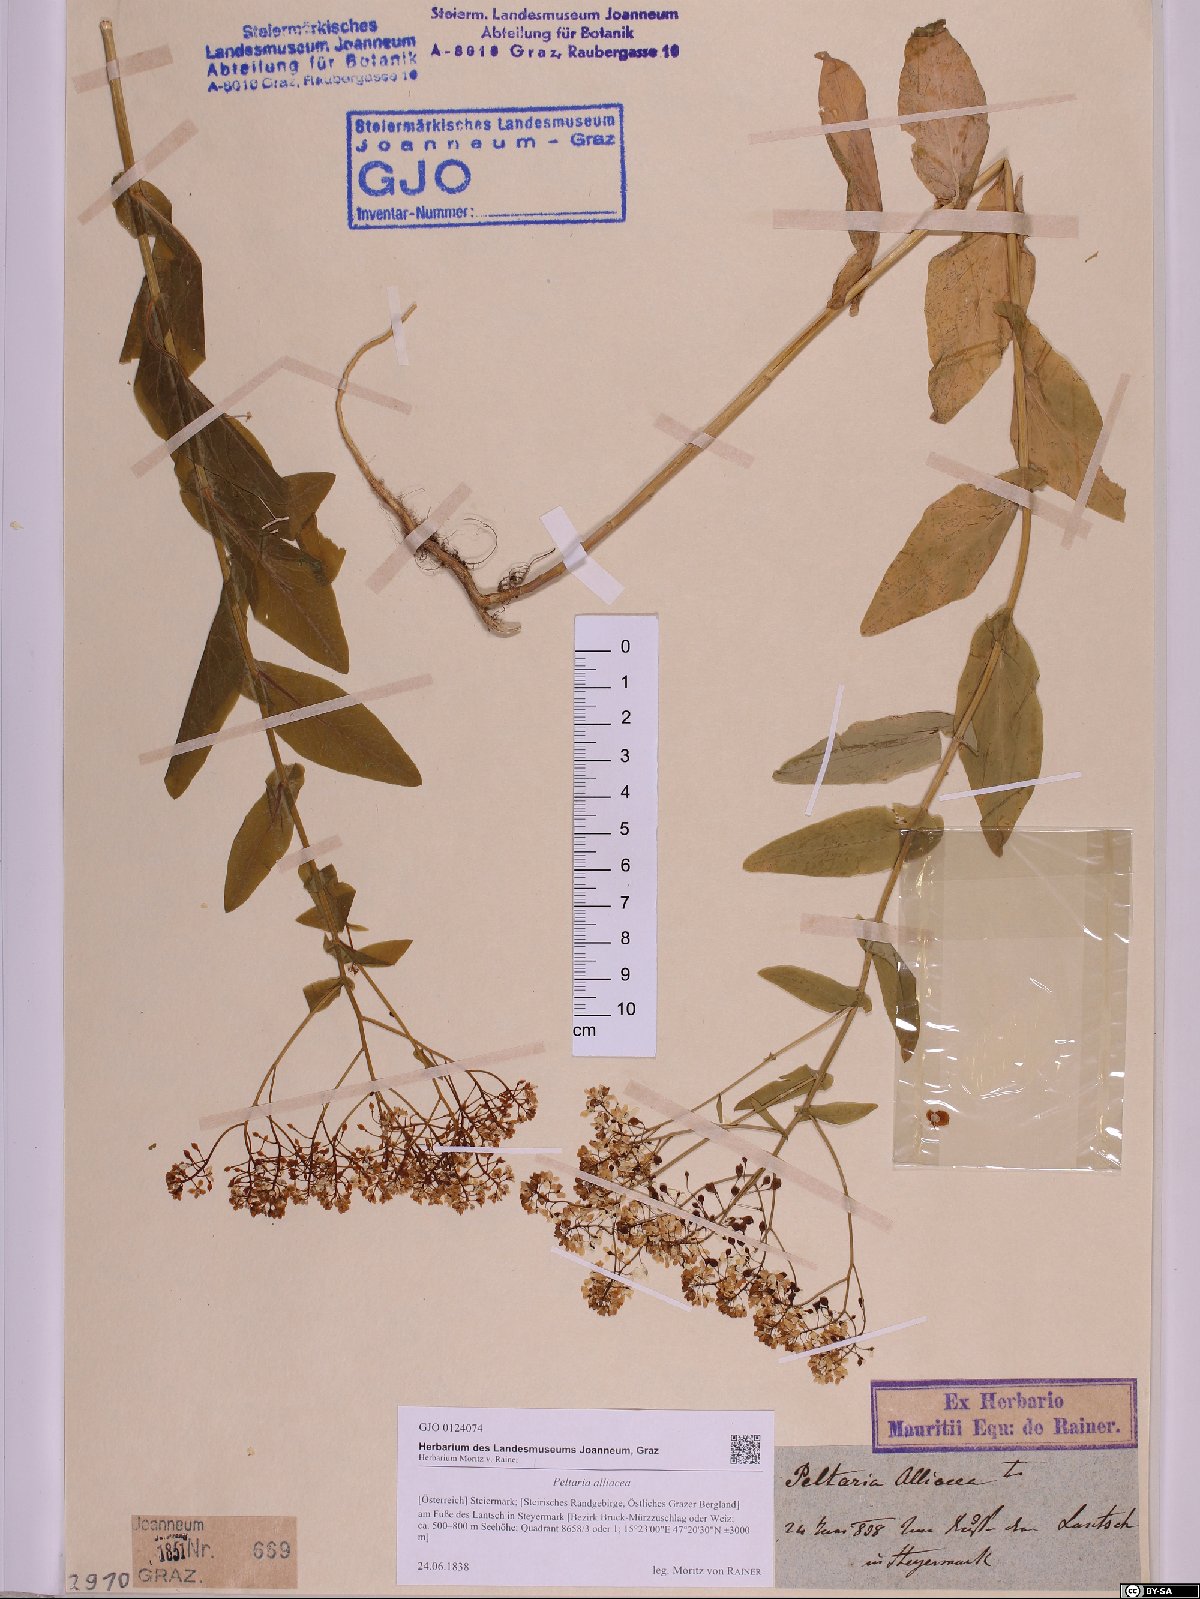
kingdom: Plantae
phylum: Tracheophyta
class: Magnoliopsida
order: Brassicales
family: Brassicaceae
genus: Peltaria
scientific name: Peltaria alliacea
